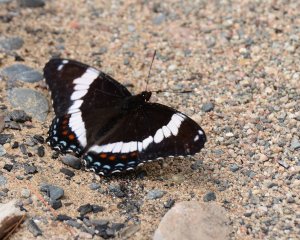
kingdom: Animalia
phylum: Arthropoda
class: Insecta
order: Lepidoptera
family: Nymphalidae
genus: Limenitis
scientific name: Limenitis arthemis
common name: Red-spotted Admiral
